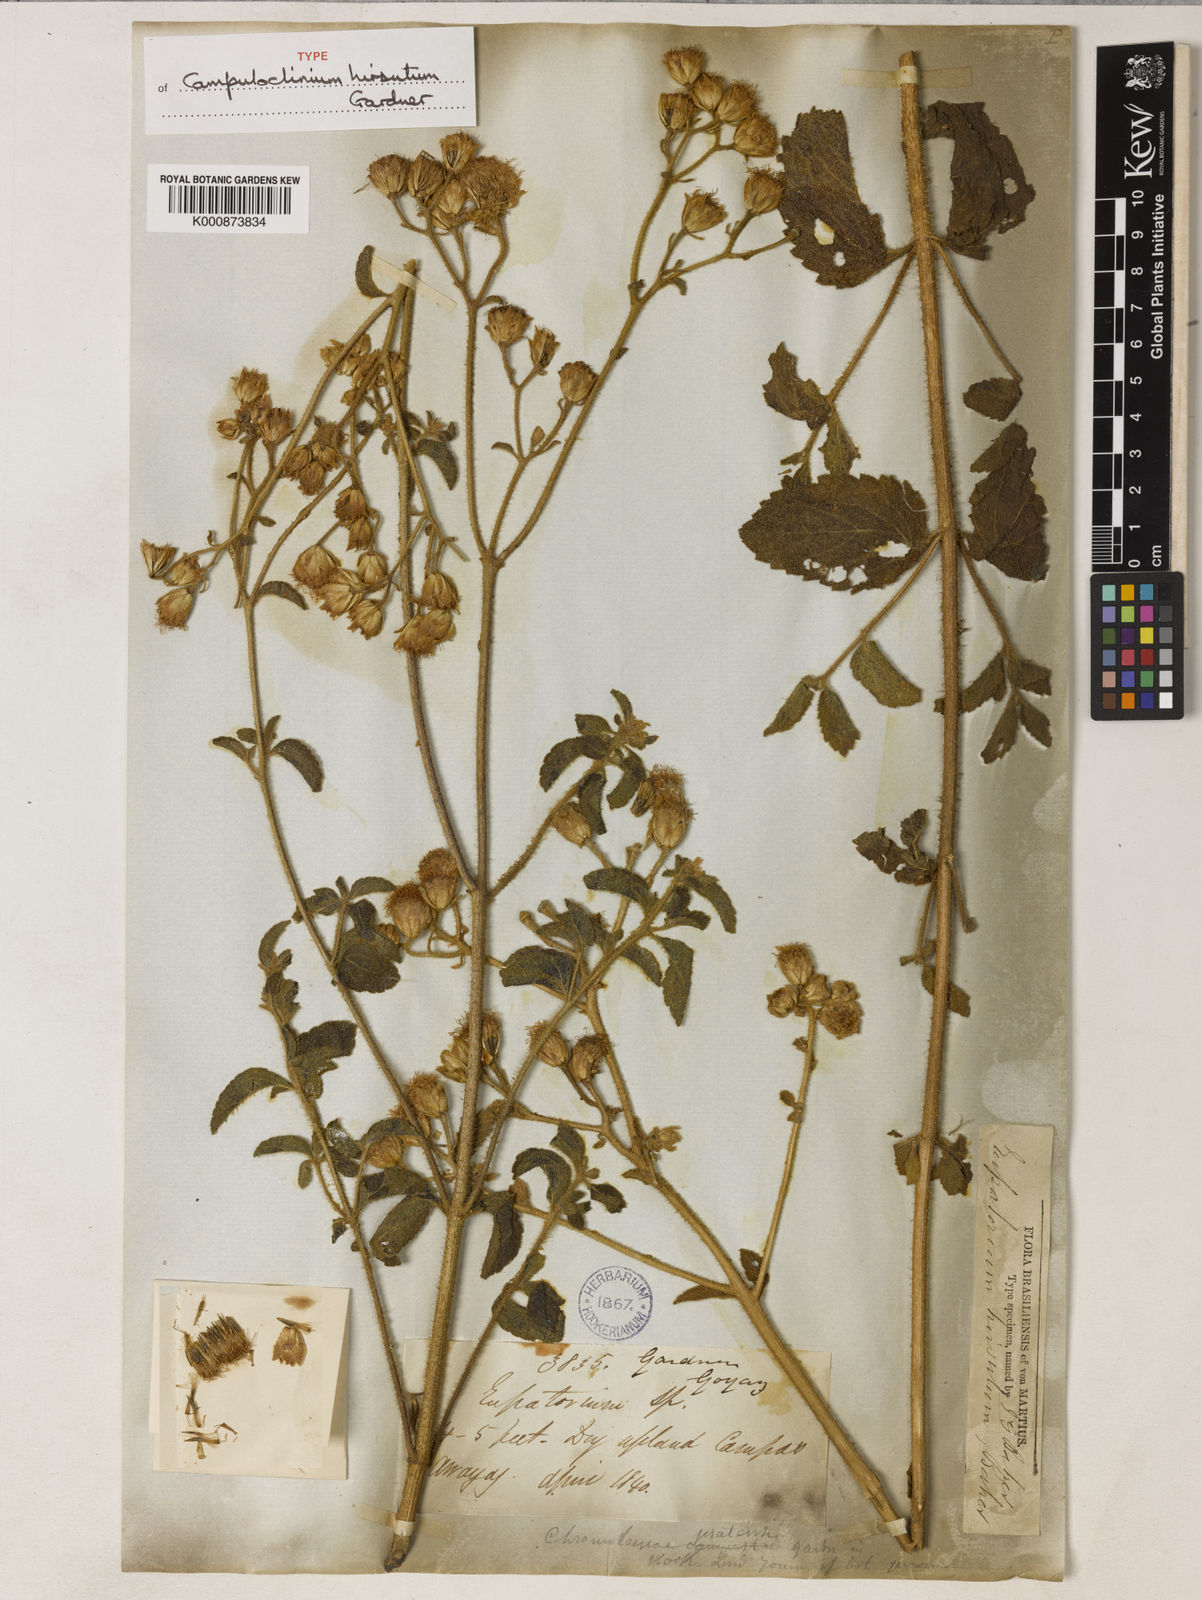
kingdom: Plantae
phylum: Tracheophyta
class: Magnoliopsida
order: Asterales
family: Asteraceae
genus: Campuloclinium
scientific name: Campuloclinium hirsutum
